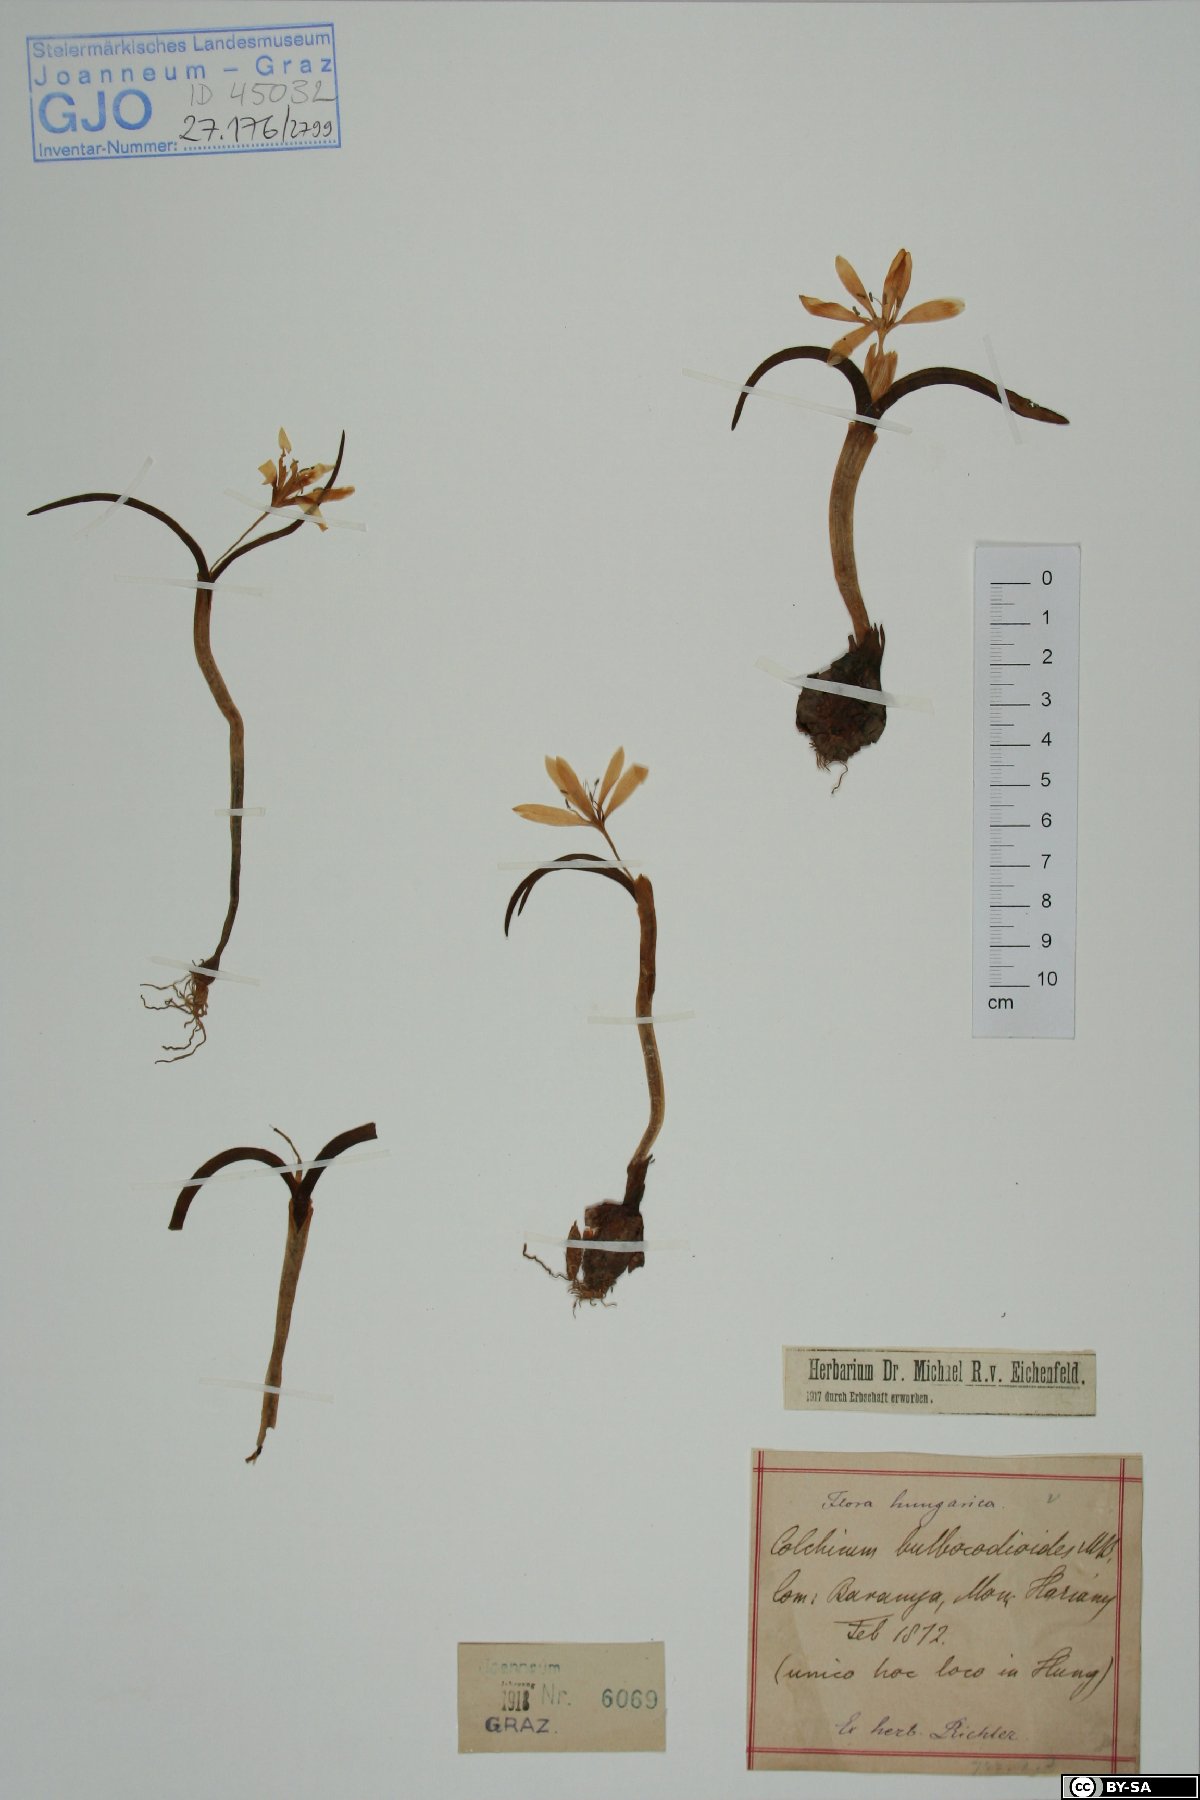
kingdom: Plantae
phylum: Tracheophyta
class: Liliopsida
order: Liliales
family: Colchicaceae
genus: Colchicum
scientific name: Colchicum triphyllum
